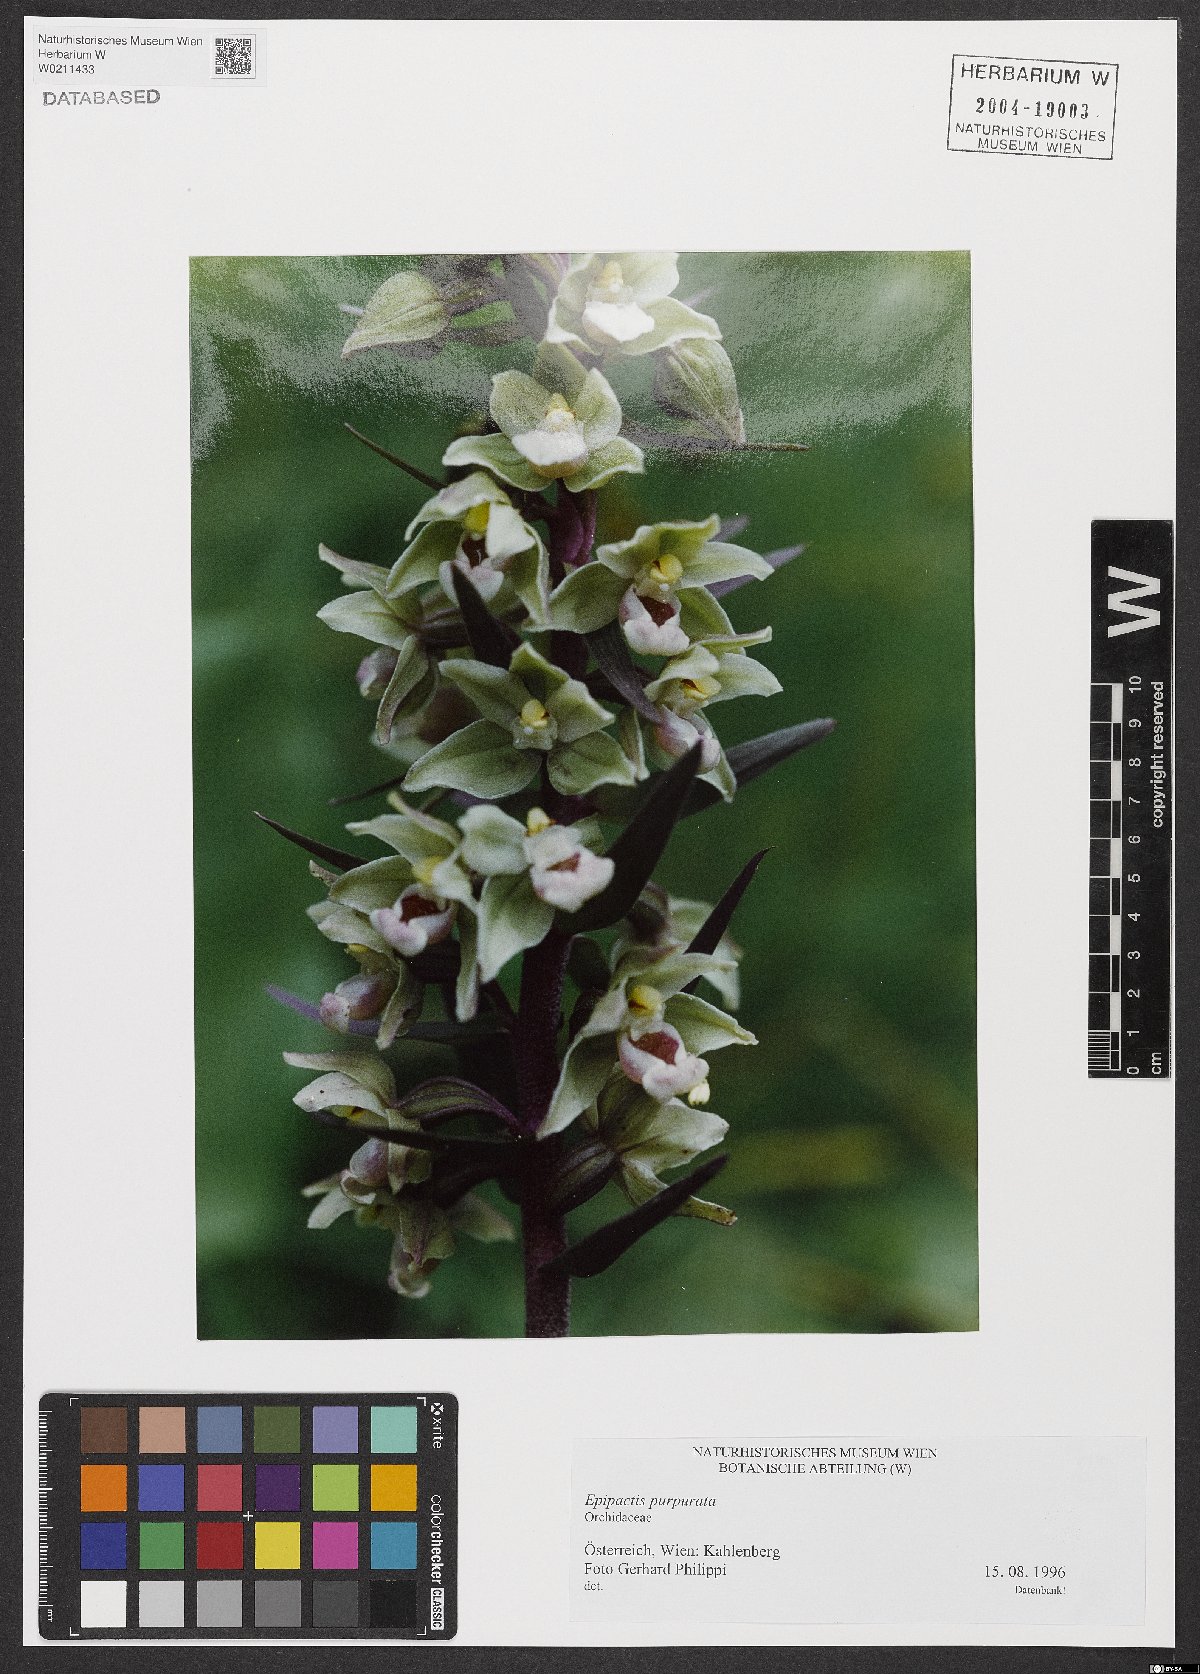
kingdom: Plantae
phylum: Tracheophyta
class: Liliopsida
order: Asparagales
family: Orchidaceae
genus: Epipactis
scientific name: Epipactis purpurata
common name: Violet helleborine
